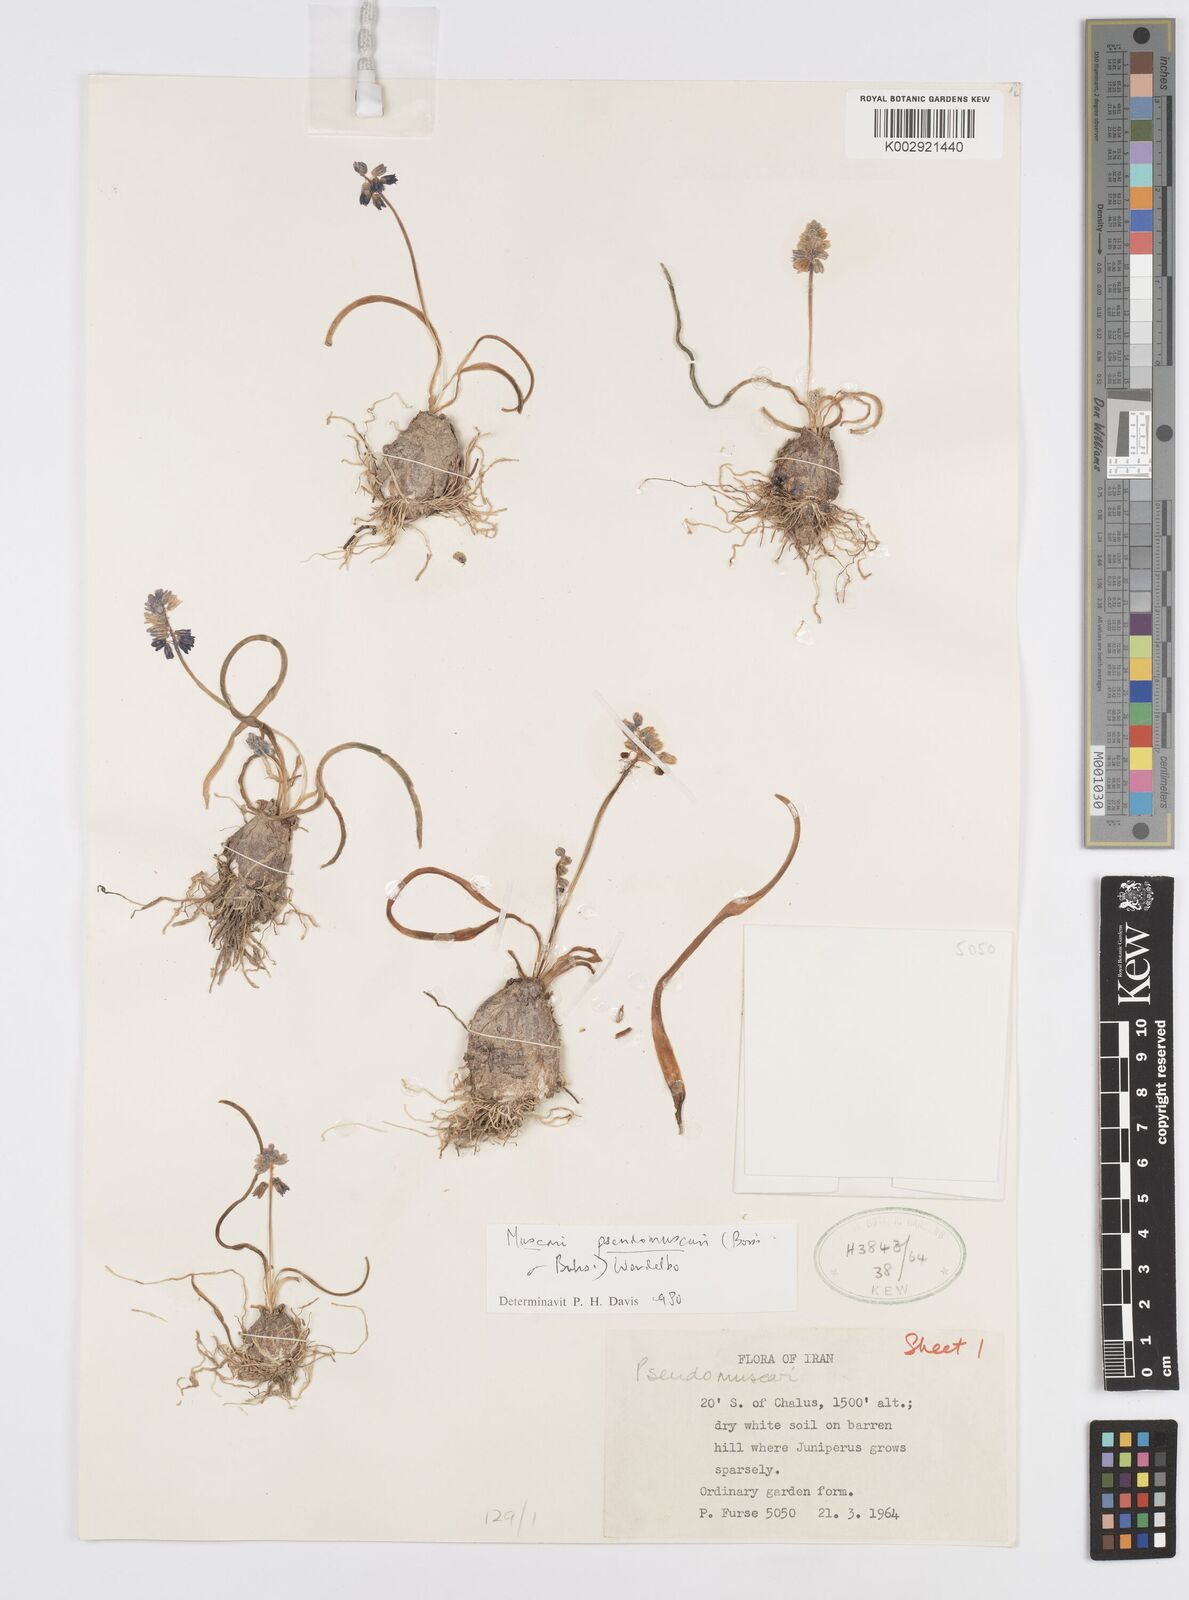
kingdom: Plantae
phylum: Tracheophyta
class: Liliopsida
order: Asparagales
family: Asparagaceae
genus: Muscari
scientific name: Muscari
